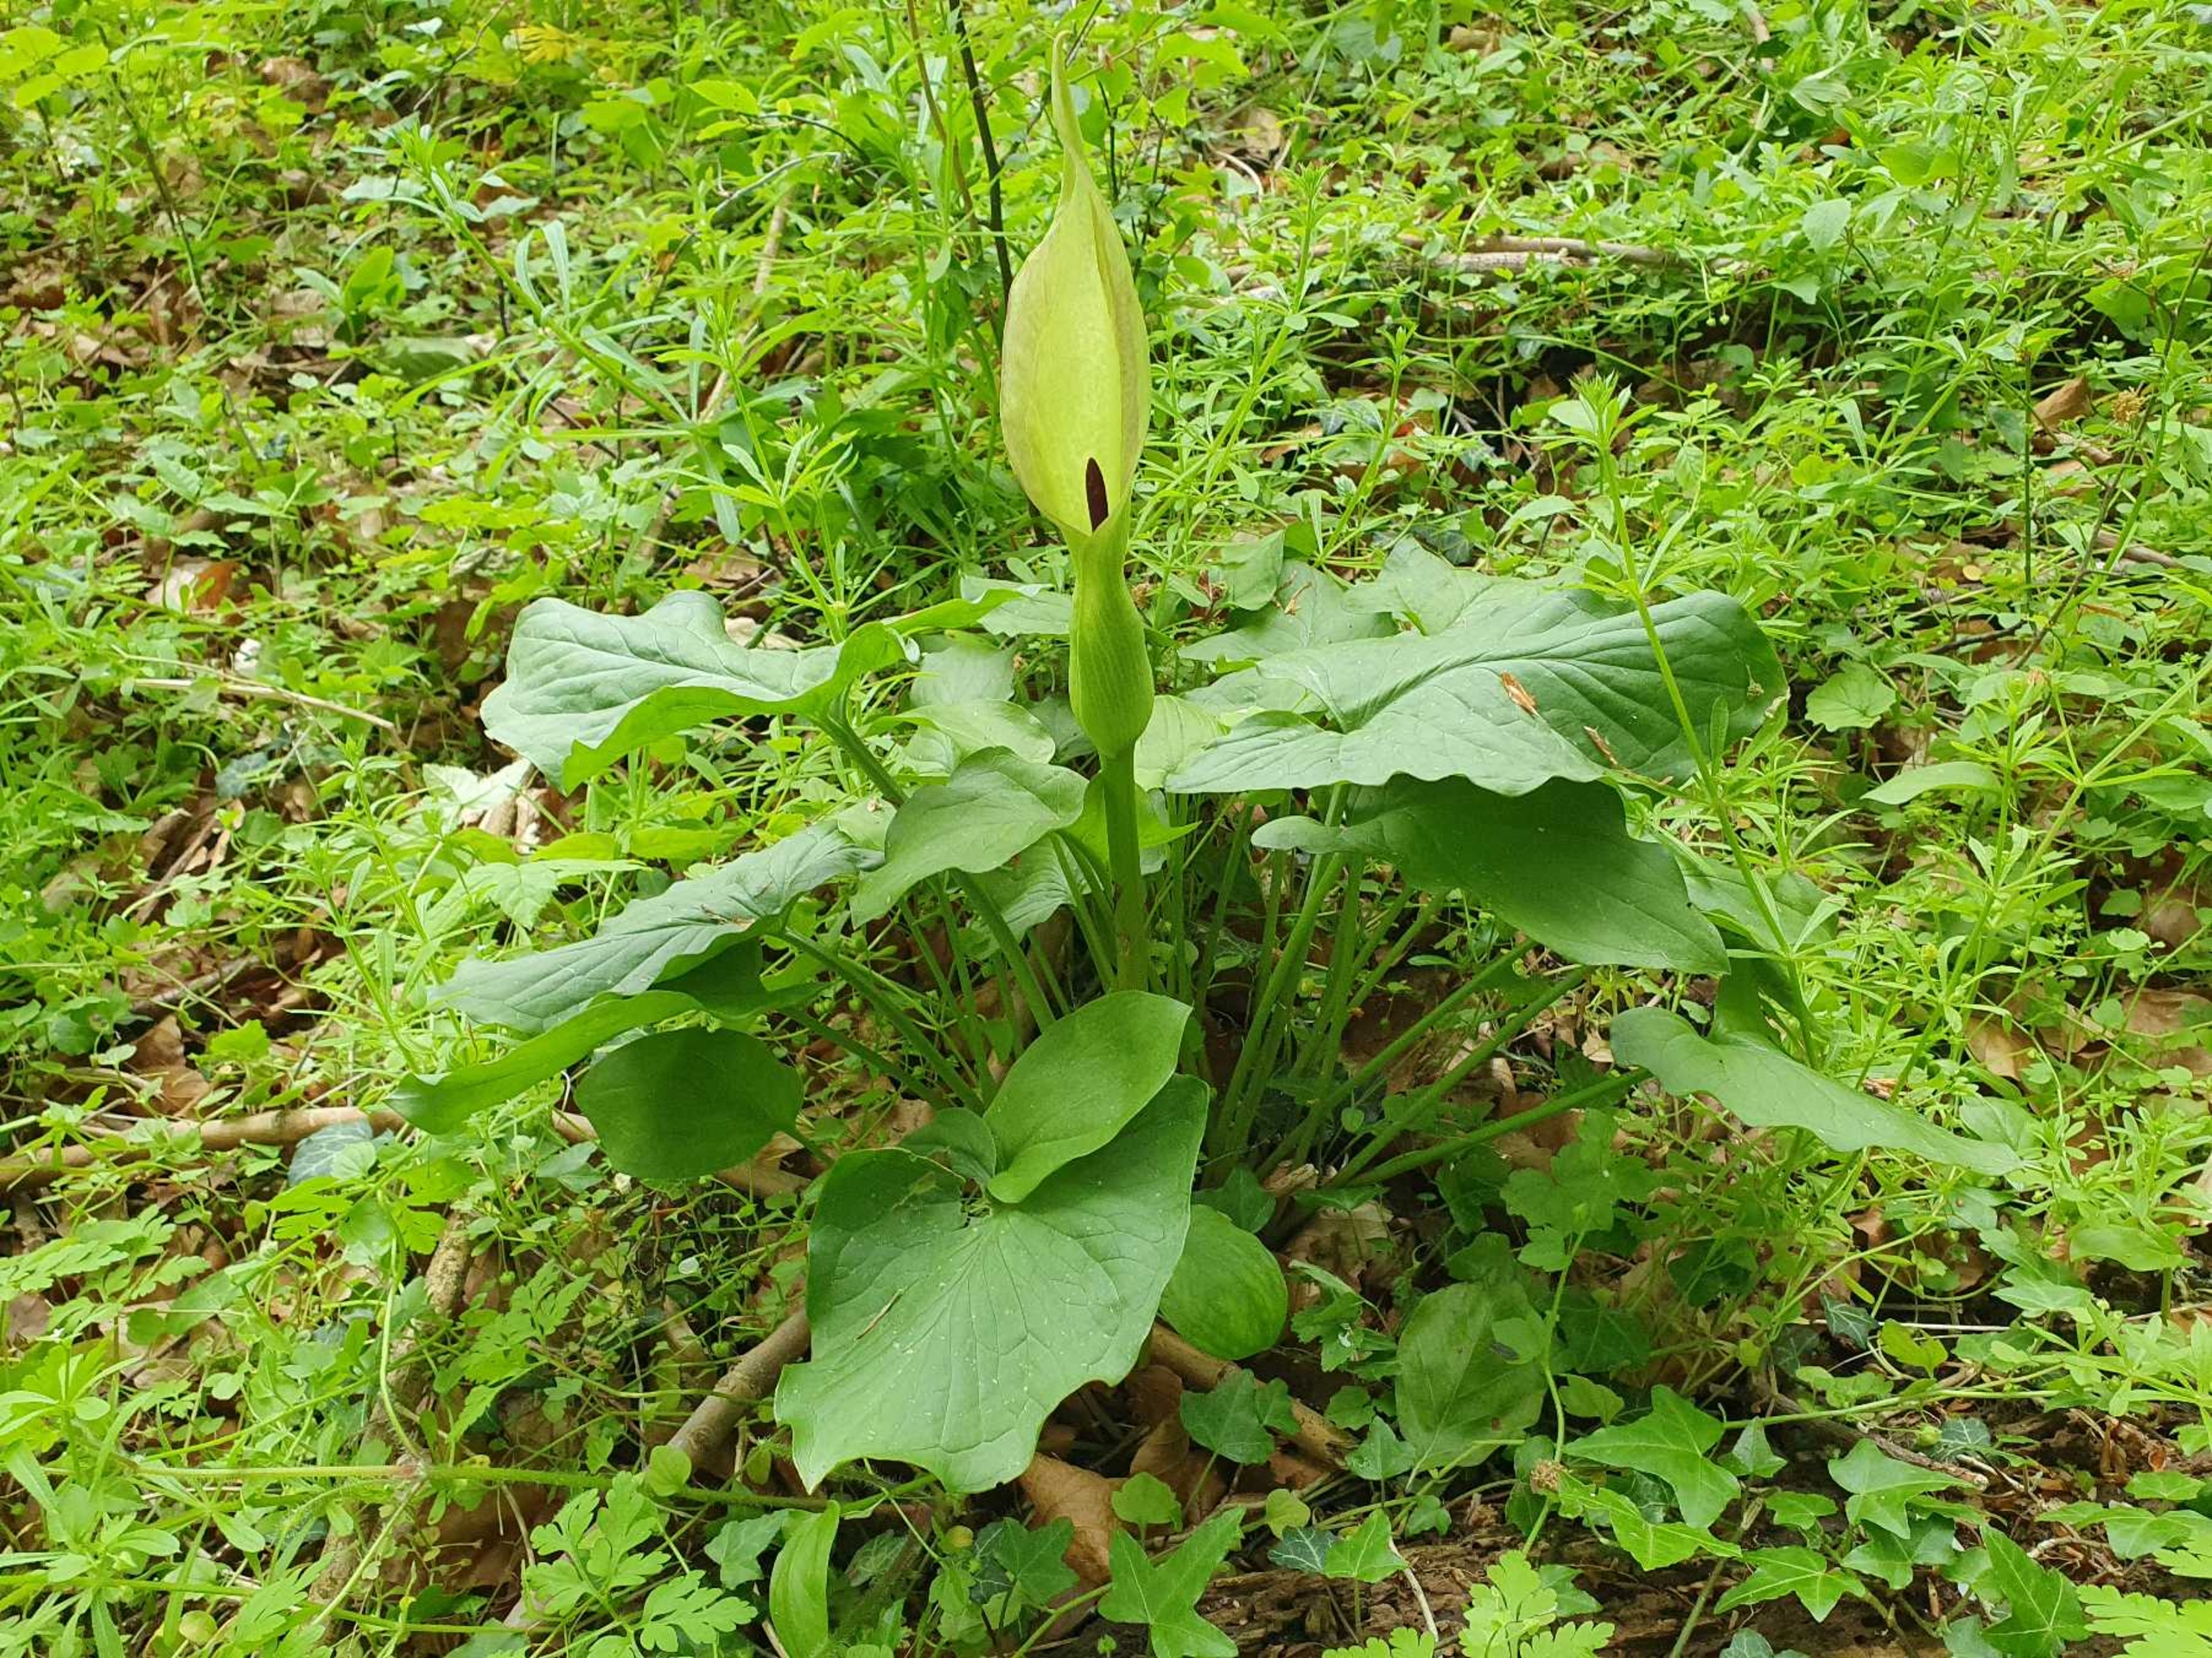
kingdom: Plantae
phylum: Tracheophyta
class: Liliopsida
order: Alismatales
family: Araceae
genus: Arum
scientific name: Arum cylindraceum
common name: Dansk arum
